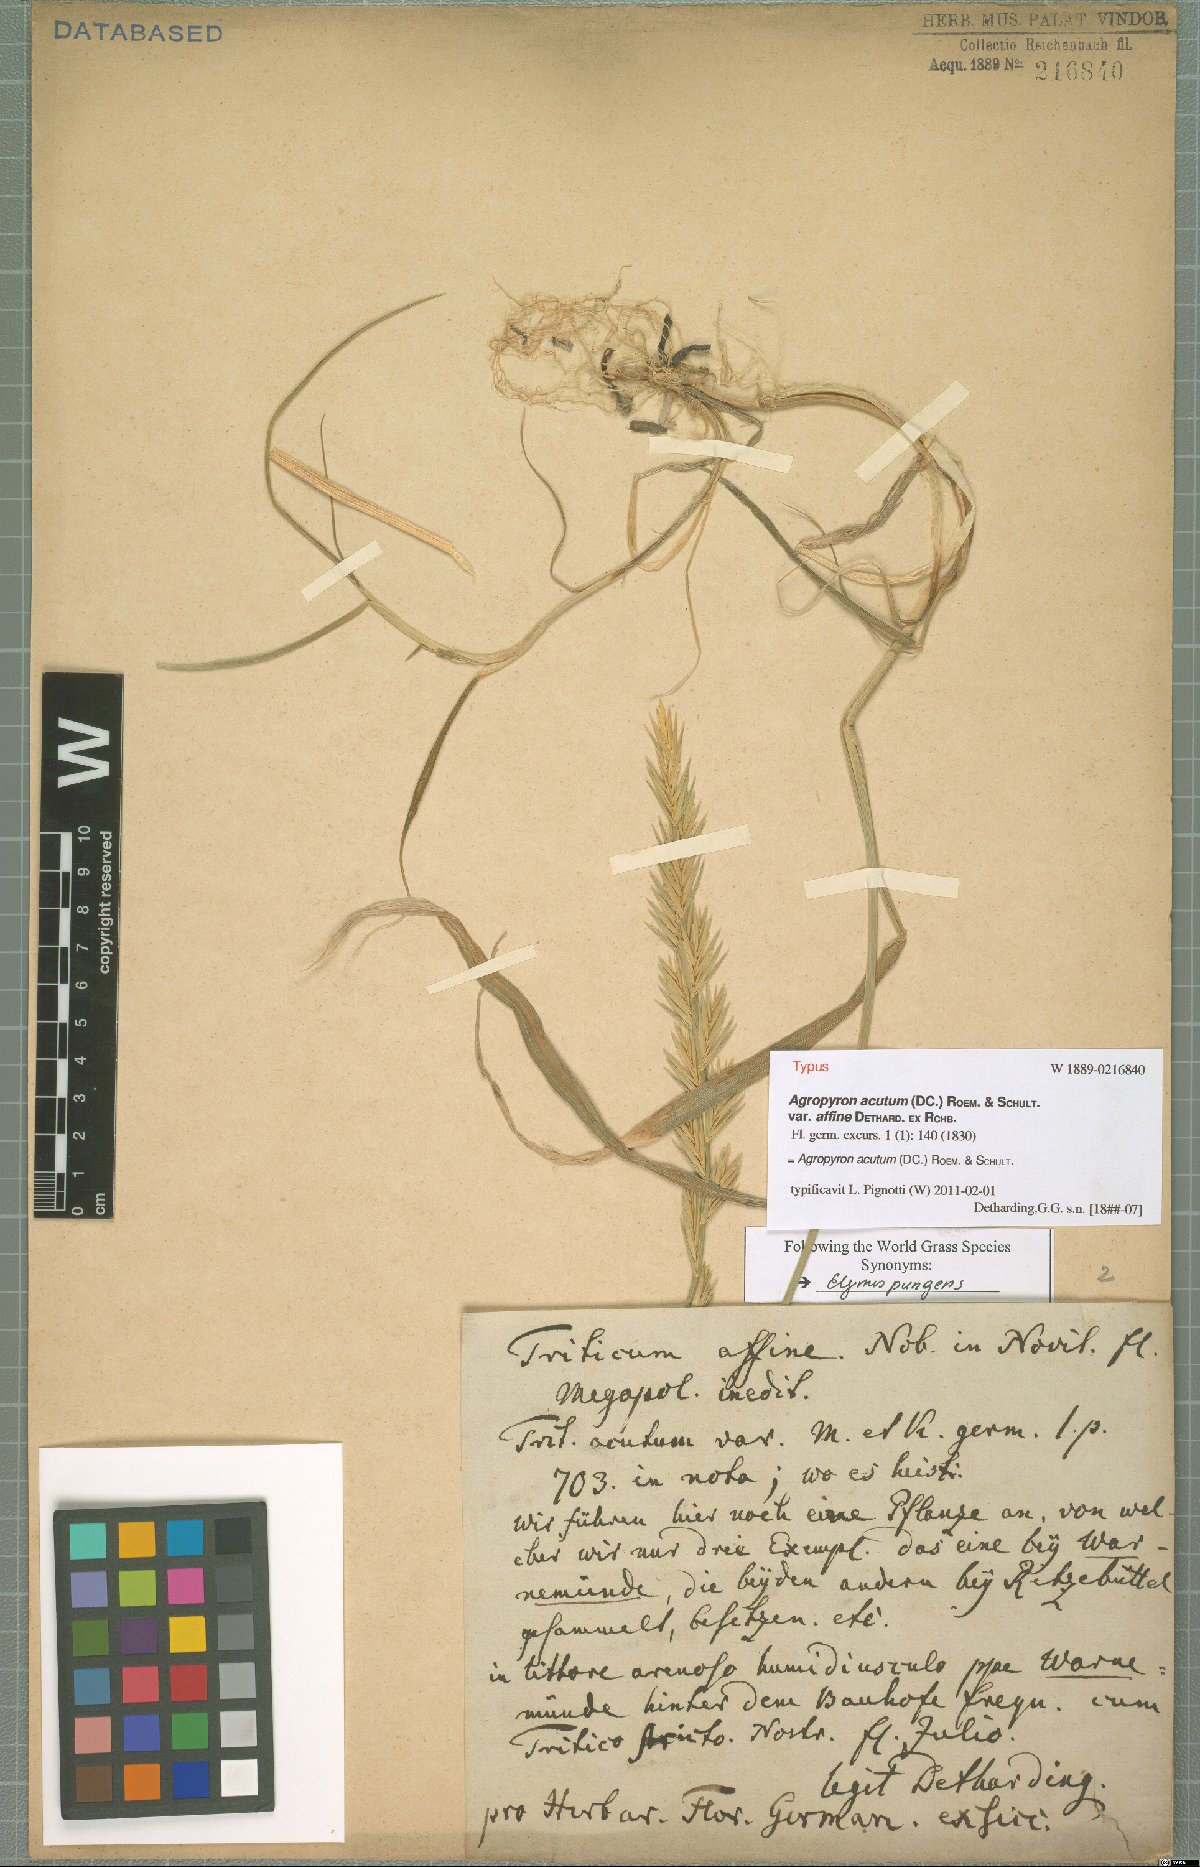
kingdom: Plantae
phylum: Tracheophyta
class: Liliopsida
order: Poales
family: Poaceae
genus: Thinopyrum
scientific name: Thinopyrum acutum
